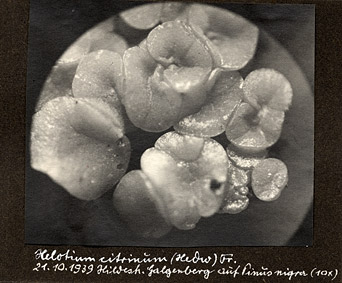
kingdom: Fungi
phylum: Ascomycota
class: Leotiomycetes
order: Helotiales
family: Pezizellaceae
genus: Calycina
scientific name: Calycina citrina
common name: Yellow fairy cups
